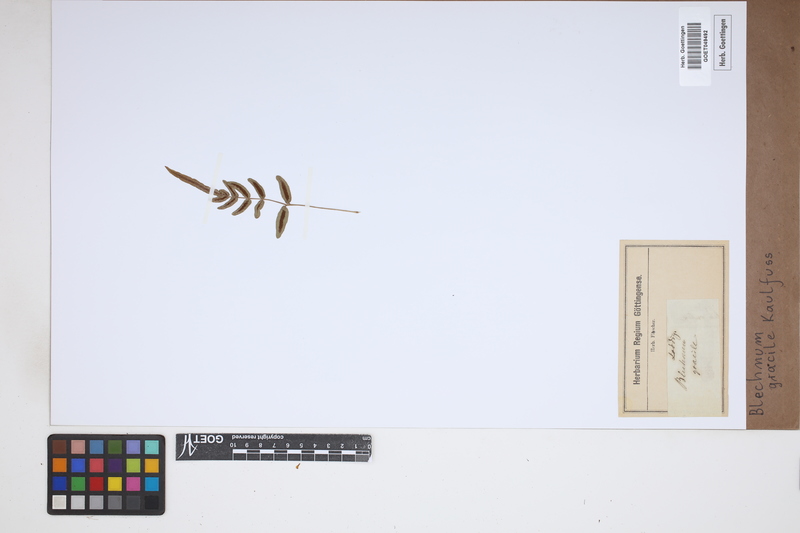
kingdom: Plantae
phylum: Tracheophyta
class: Polypodiopsida
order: Polypodiales
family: Blechnaceae
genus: Blechnum
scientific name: Blechnum gracile
